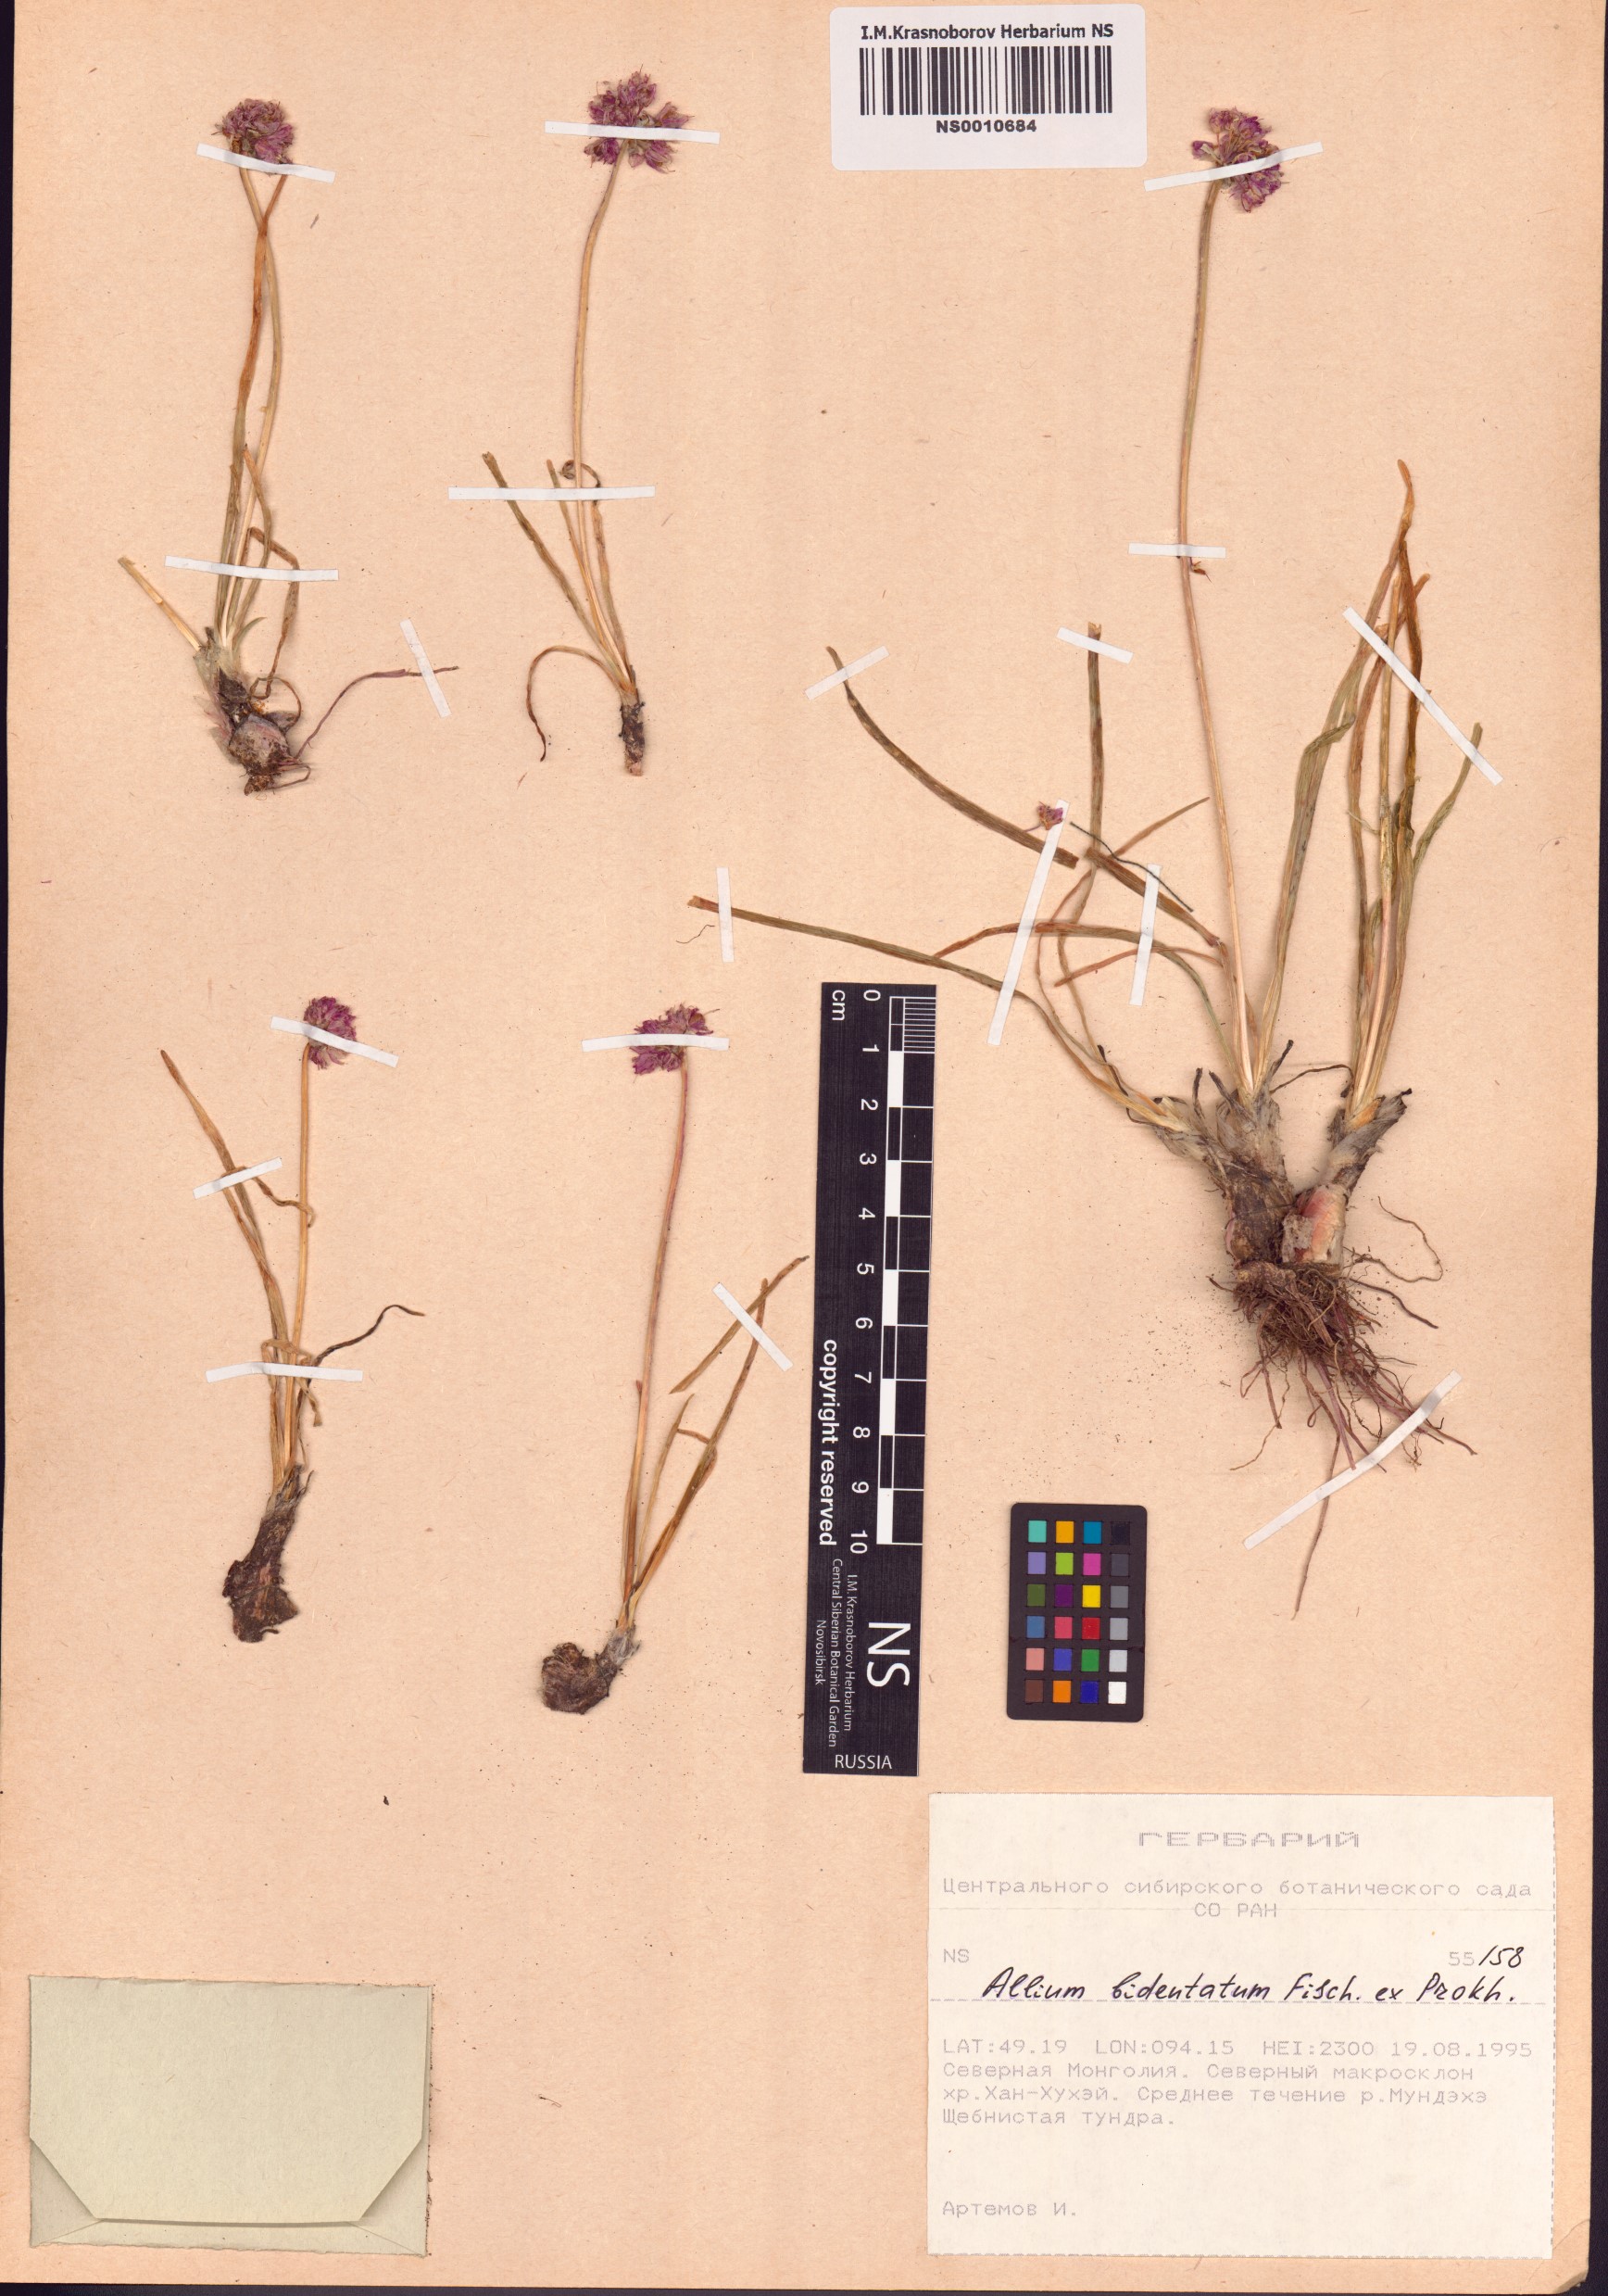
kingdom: Plantae
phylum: Tracheophyta
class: Liliopsida
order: Asparagales
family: Amaryllidaceae
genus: Allium
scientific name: Allium bidentatum
